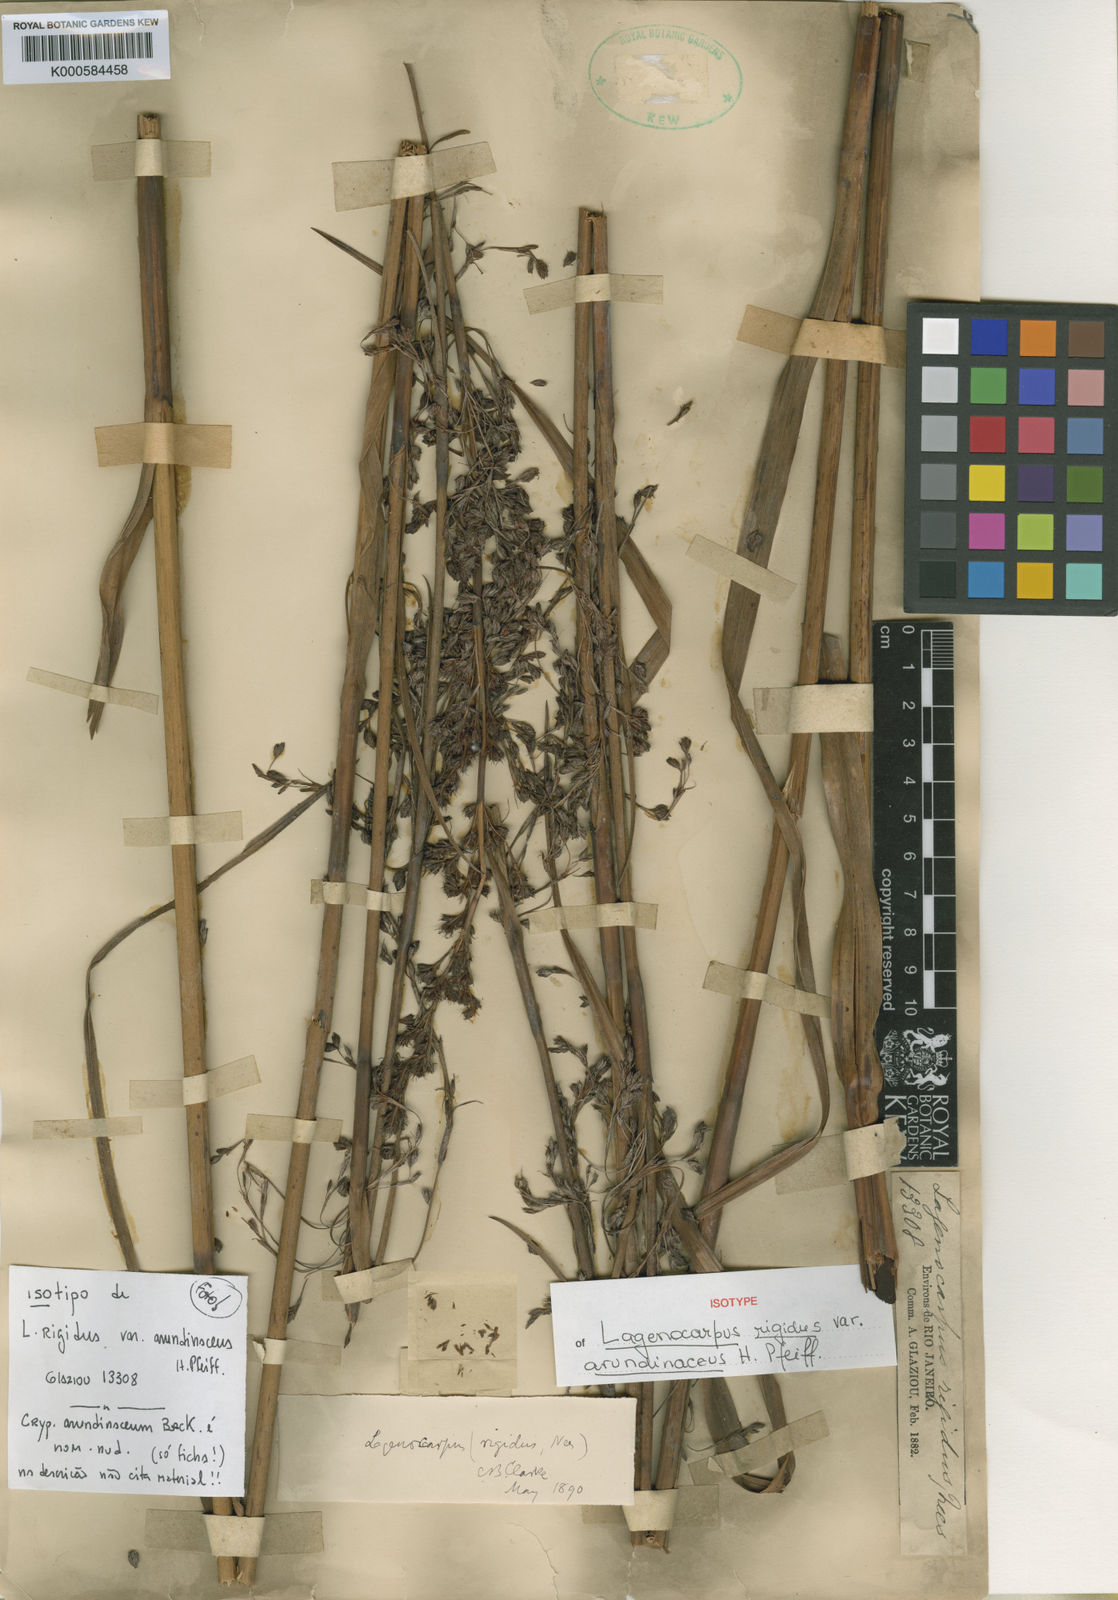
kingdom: Plantae
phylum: Tracheophyta
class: Liliopsida
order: Poales
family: Cyperaceae
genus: Lagenocarpus
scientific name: Lagenocarpus rigidus
